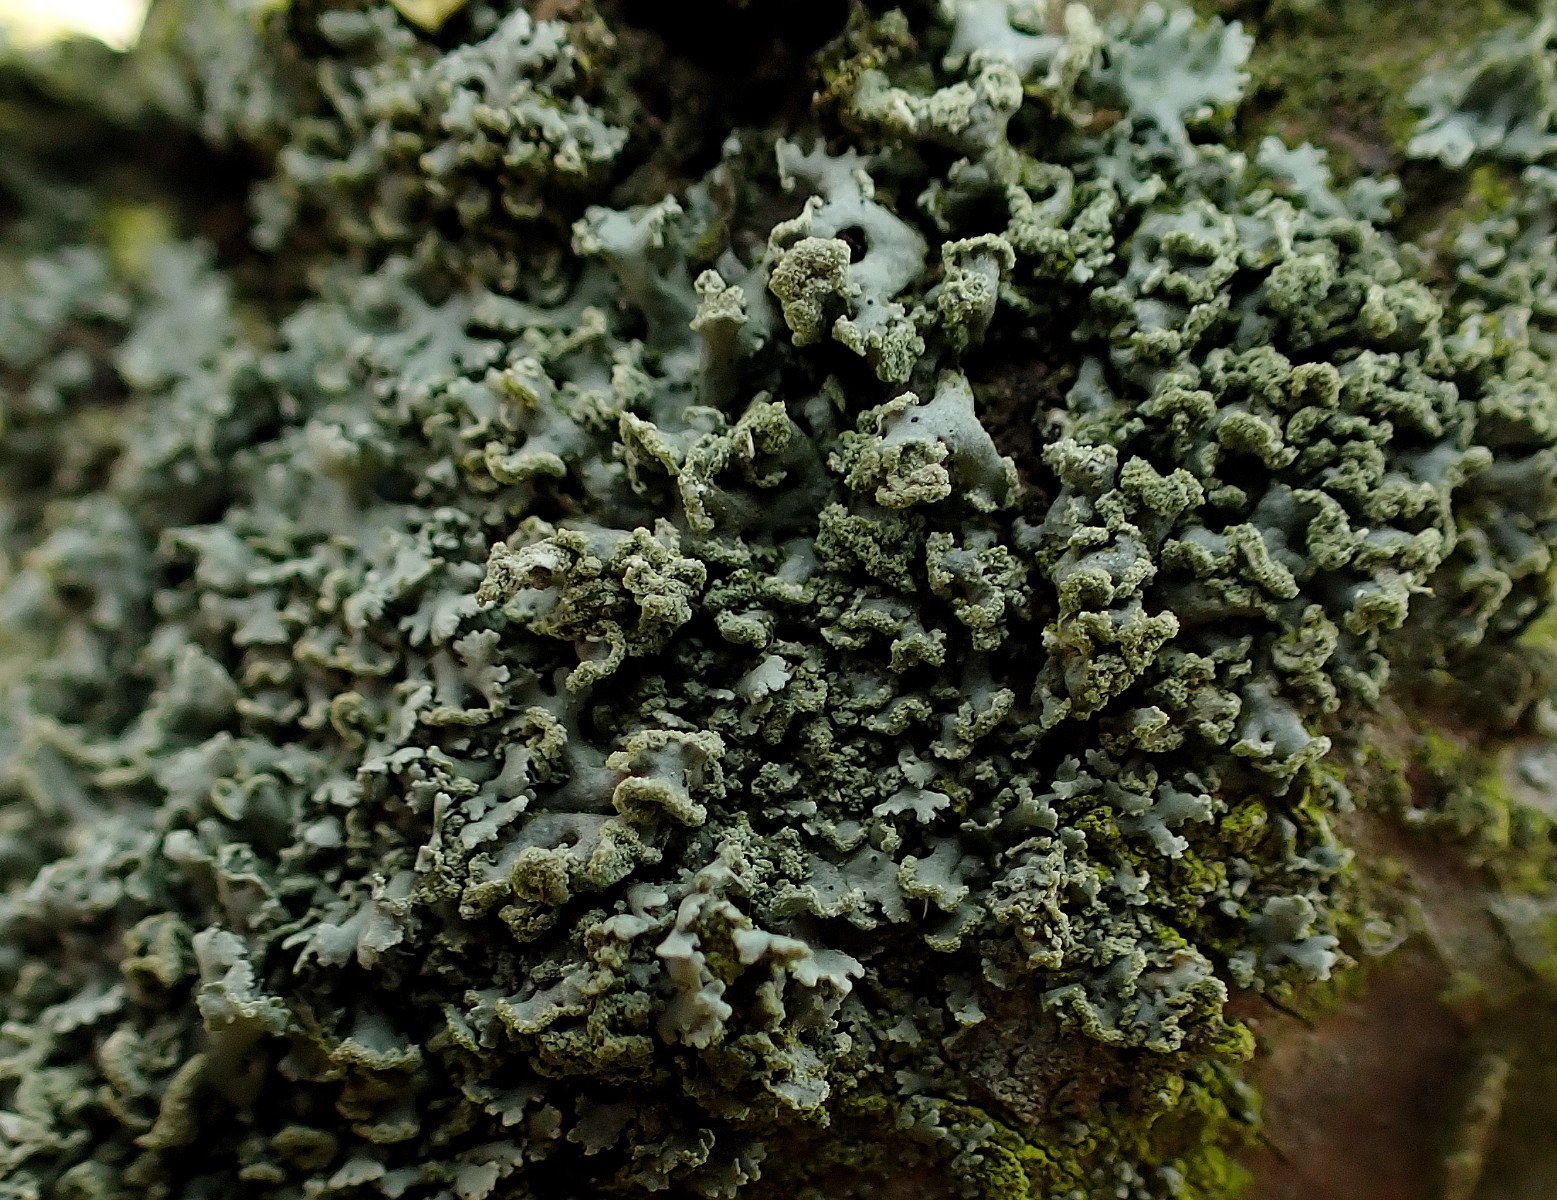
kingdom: Fungi
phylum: Ascomycota
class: Lecanoromycetes
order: Lecanorales
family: Parmeliaceae
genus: Hypogymnia
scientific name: Hypogymnia physodes
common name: almindelig kvistlav
